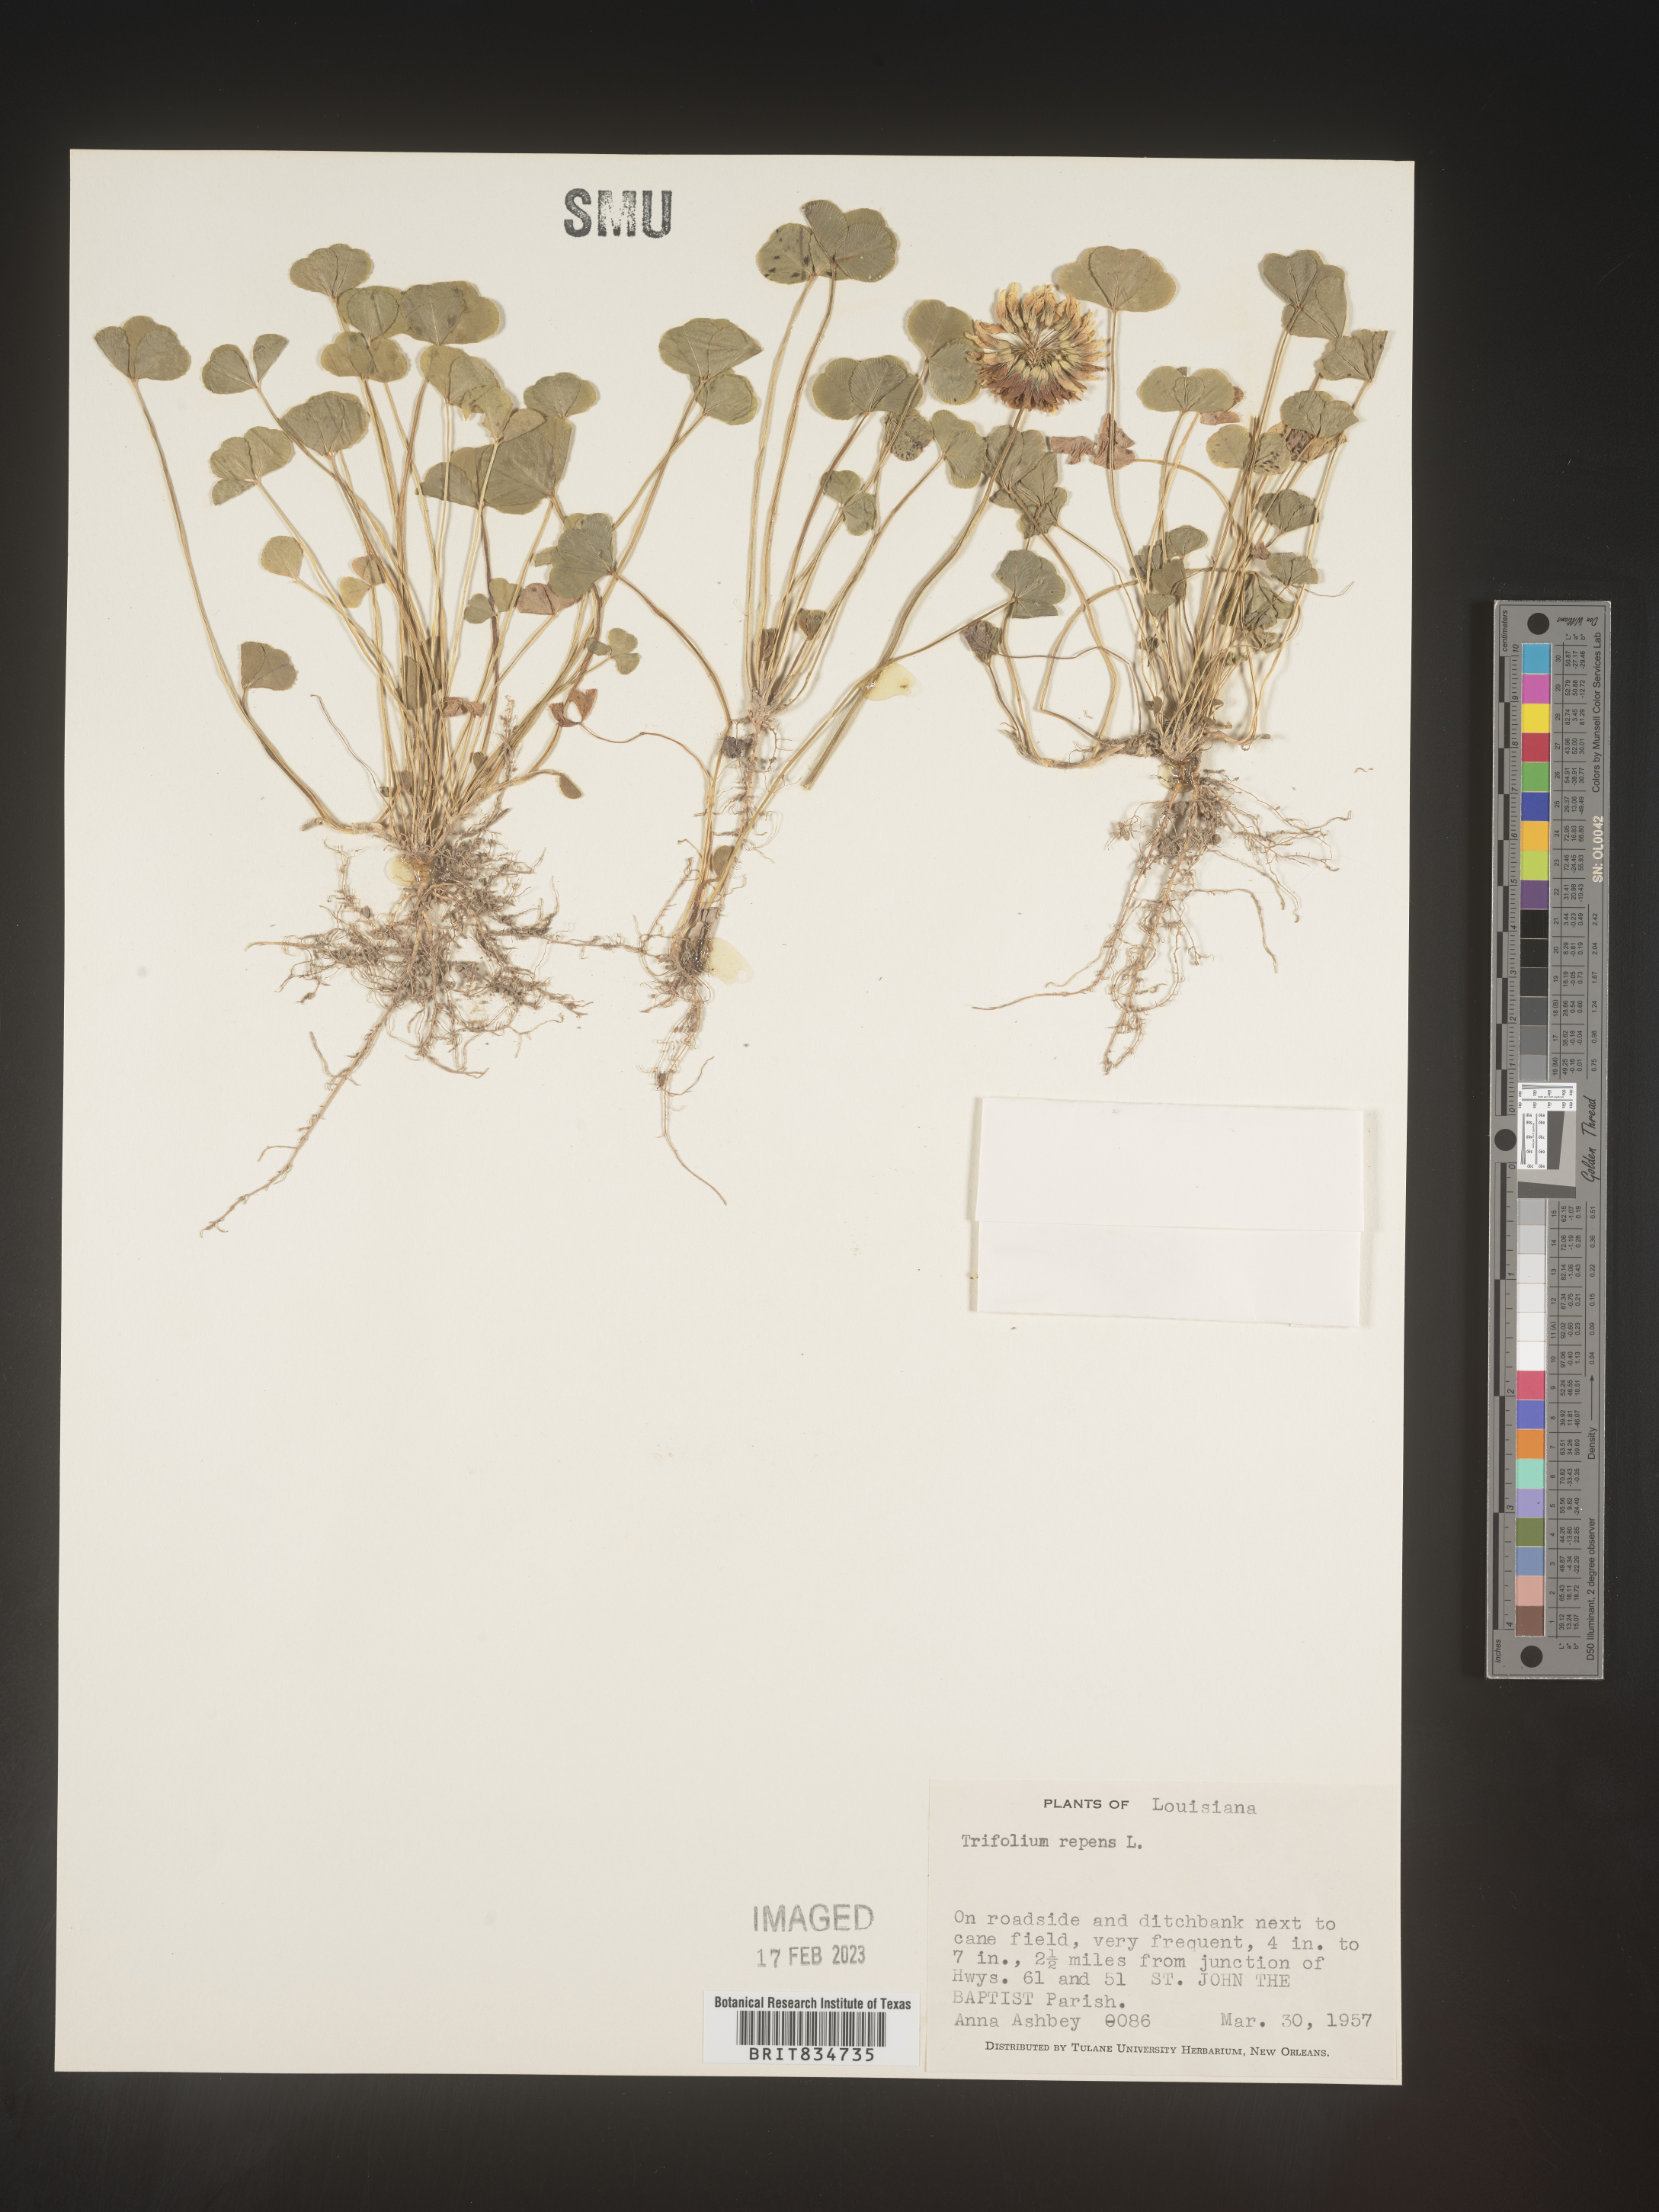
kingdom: Plantae
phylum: Tracheophyta
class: Magnoliopsida
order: Fabales
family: Fabaceae
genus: Trifolium
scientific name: Trifolium repens
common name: White clover
